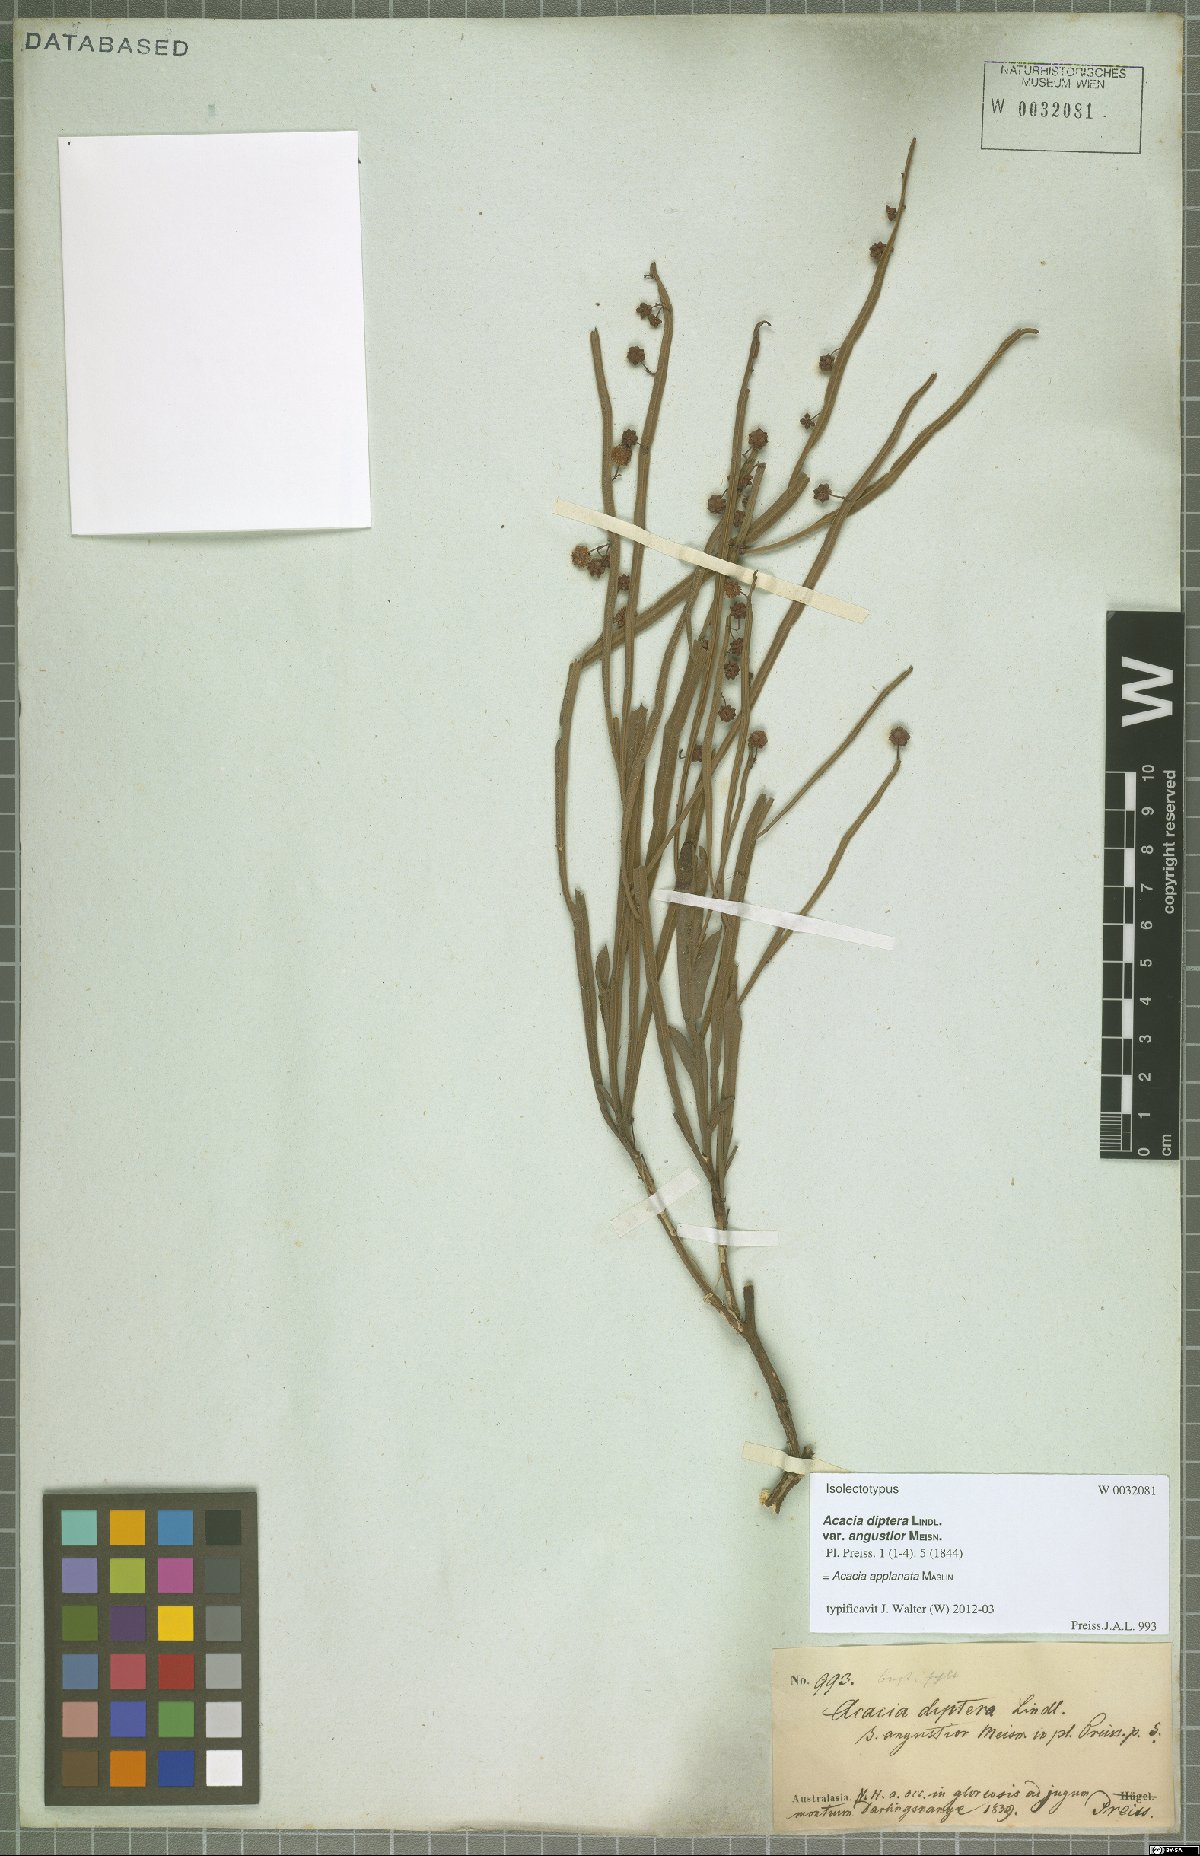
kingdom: Plantae
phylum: Tracheophyta
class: Magnoliopsida
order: Fabales
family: Fabaceae
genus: Acacia
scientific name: Acacia applanata
